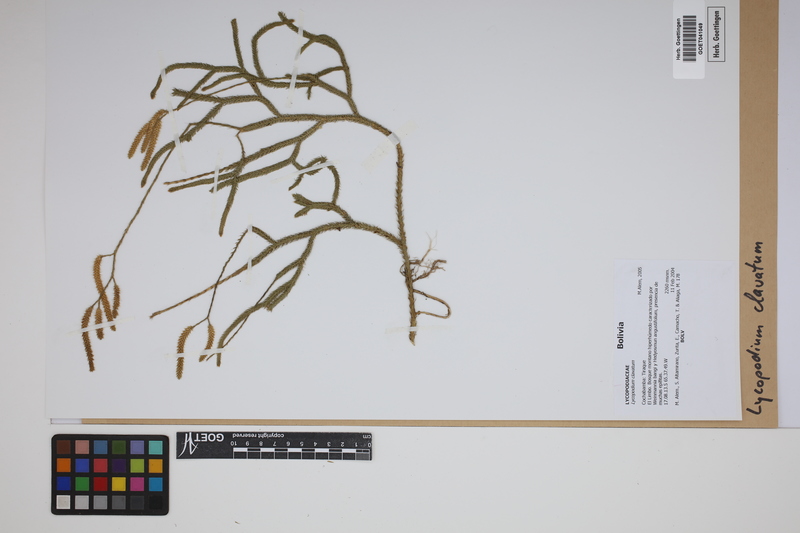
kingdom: Plantae
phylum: Tracheophyta
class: Lycopodiopsida
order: Lycopodiales
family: Lycopodiaceae
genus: Lycopodium
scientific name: Lycopodium clavatum
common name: Stag's-horn clubmoss
